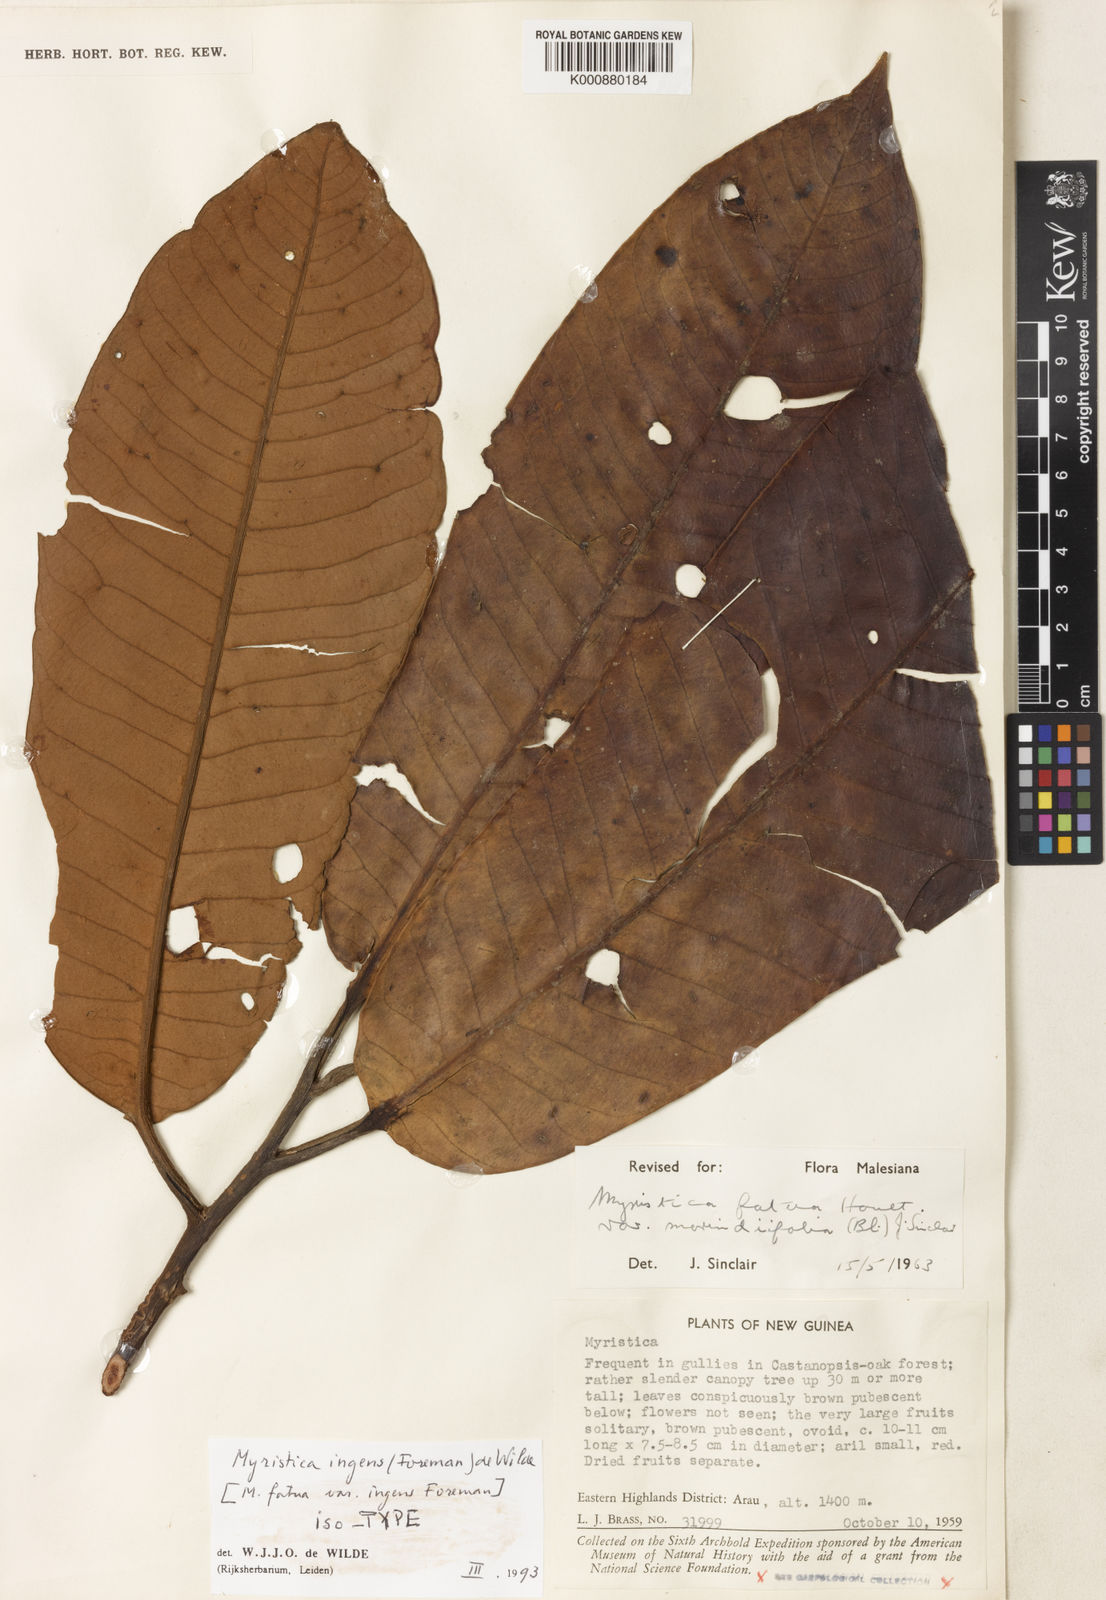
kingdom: Plantae
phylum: Tracheophyta
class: Magnoliopsida
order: Magnoliales
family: Myristicaceae
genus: Myristica
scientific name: Myristica ingens
